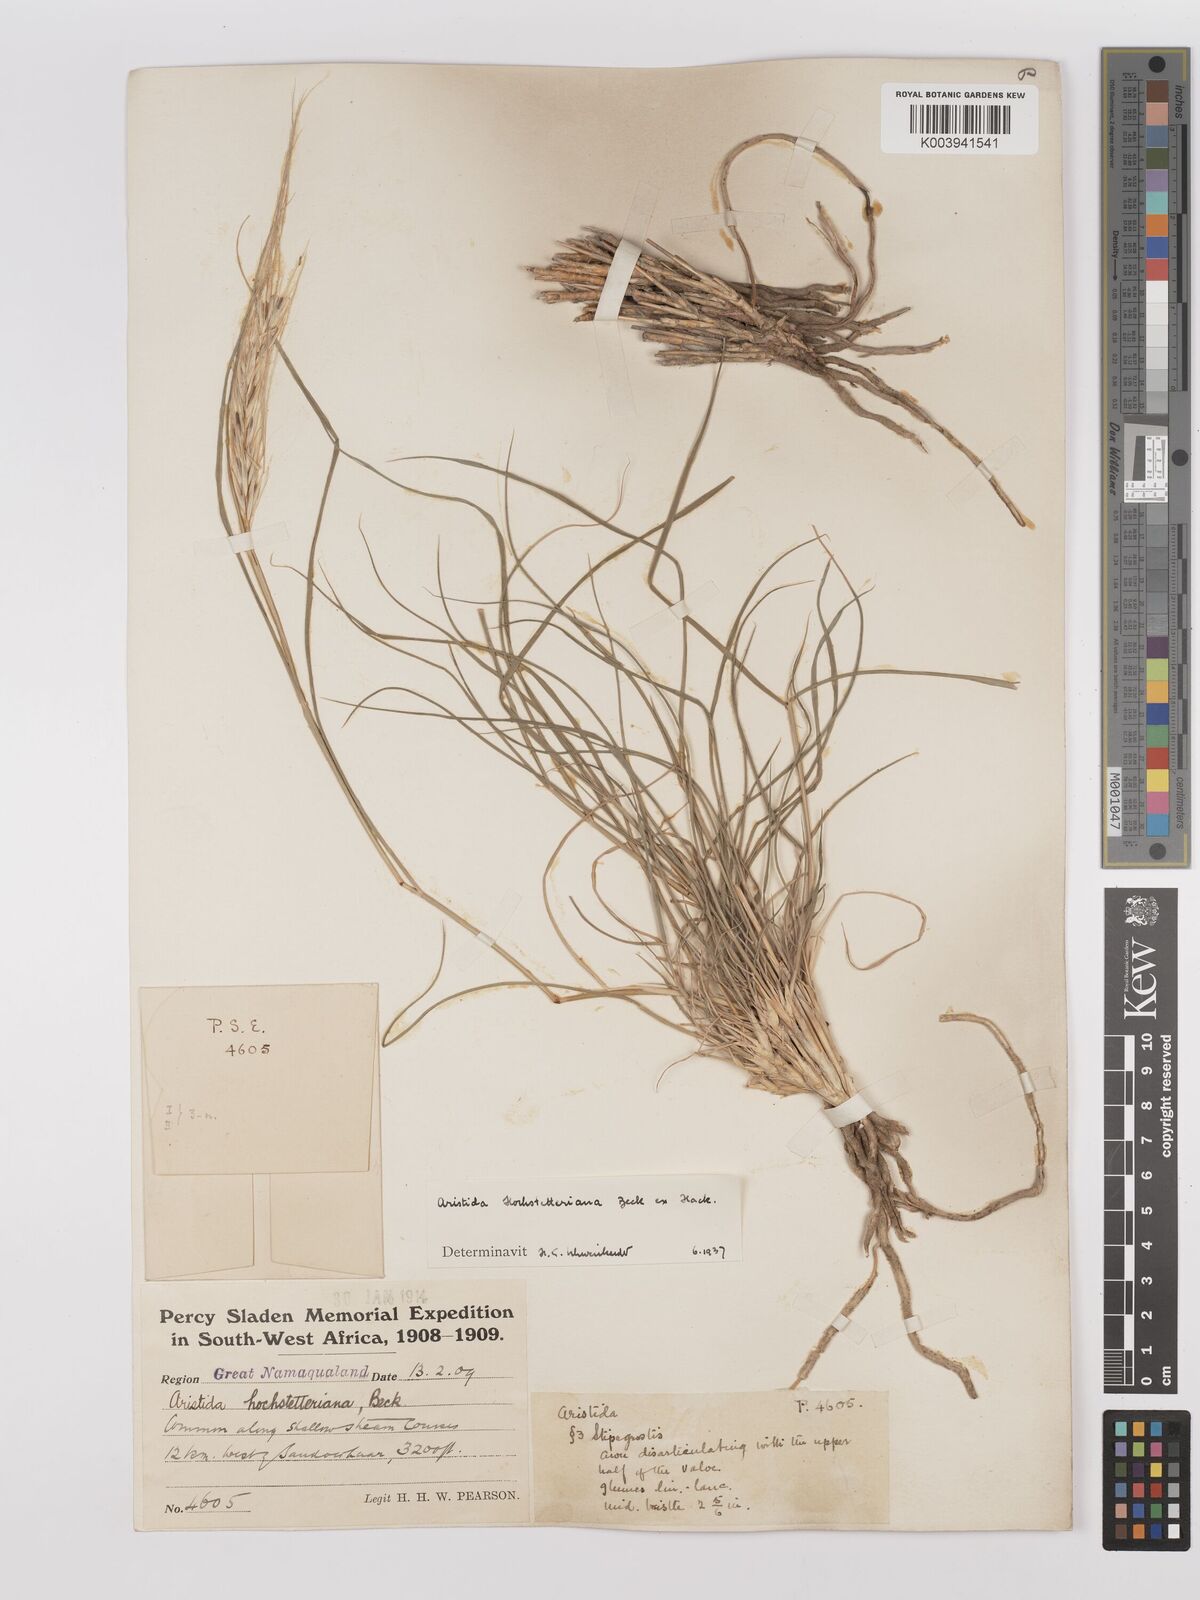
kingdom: Plantae
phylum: Tracheophyta
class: Liliopsida
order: Poales
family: Poaceae
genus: Stipagrostis
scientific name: Stipagrostis hochstetteriana
